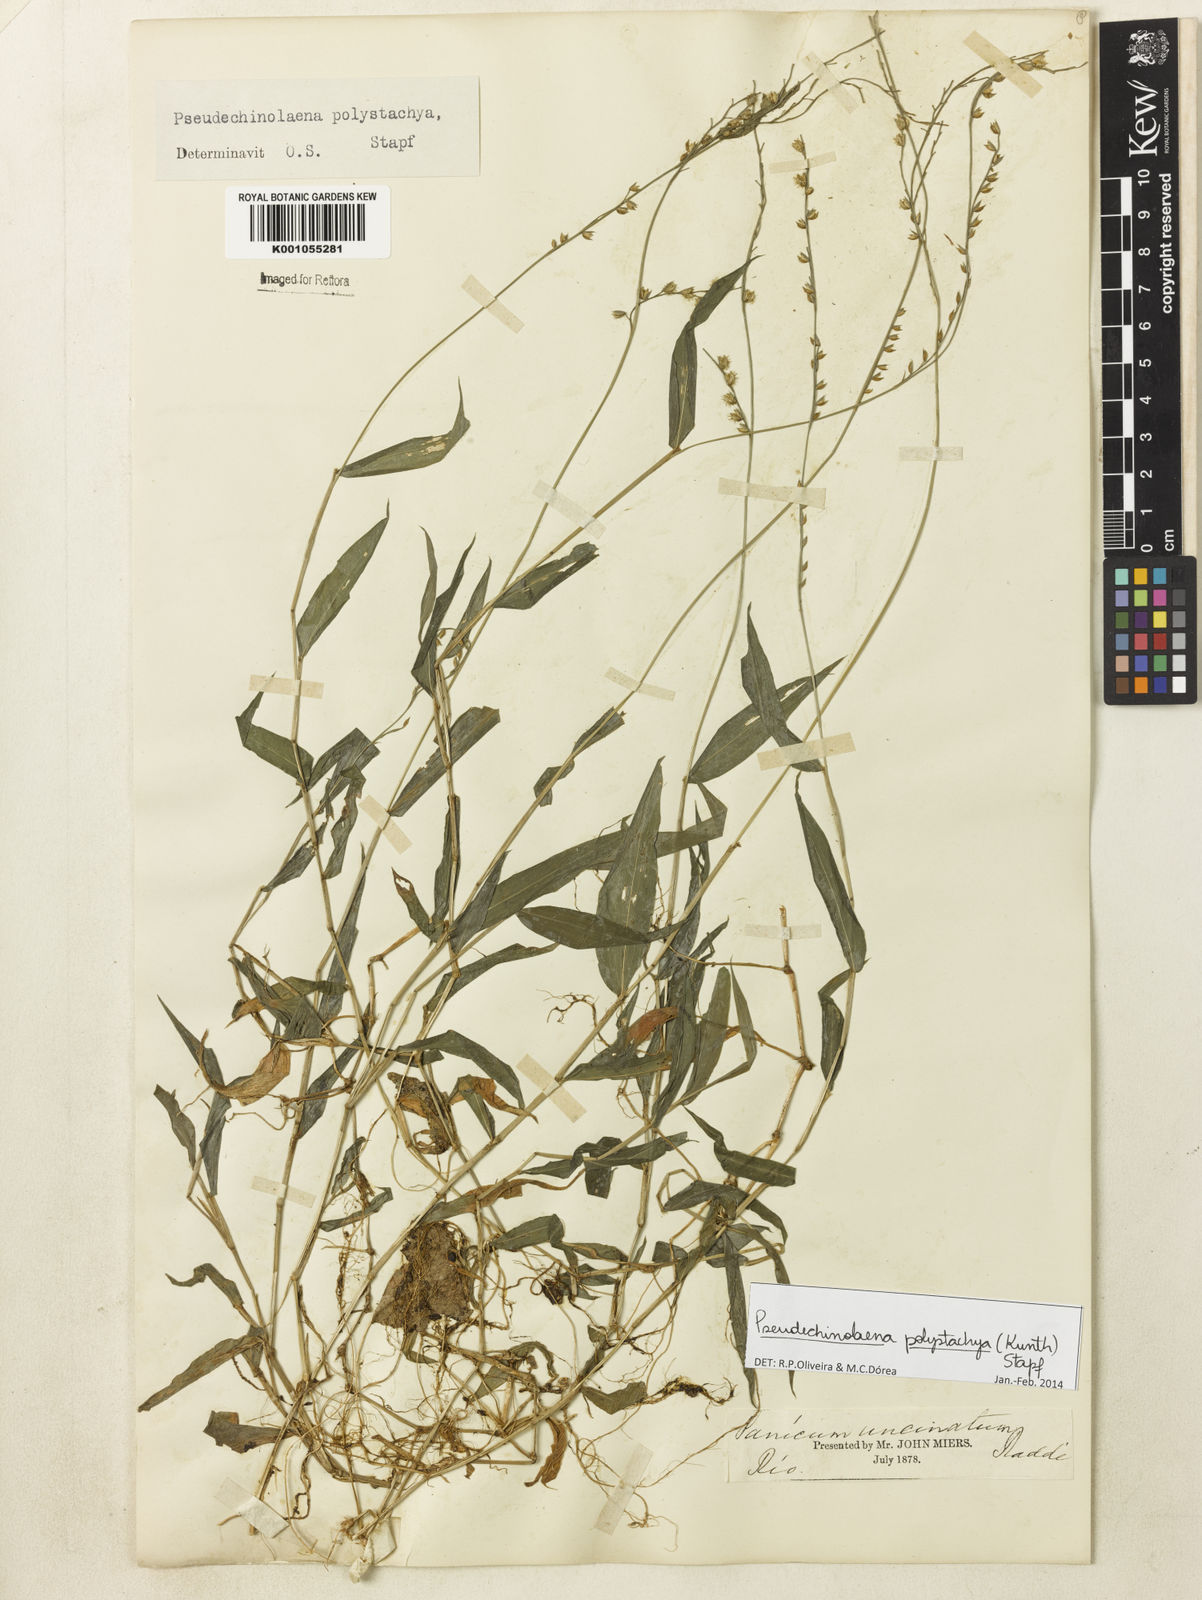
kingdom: Plantae
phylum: Tracheophyta
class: Liliopsida
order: Poales
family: Poaceae
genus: Pseudechinolaena
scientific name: Pseudechinolaena polystachya
